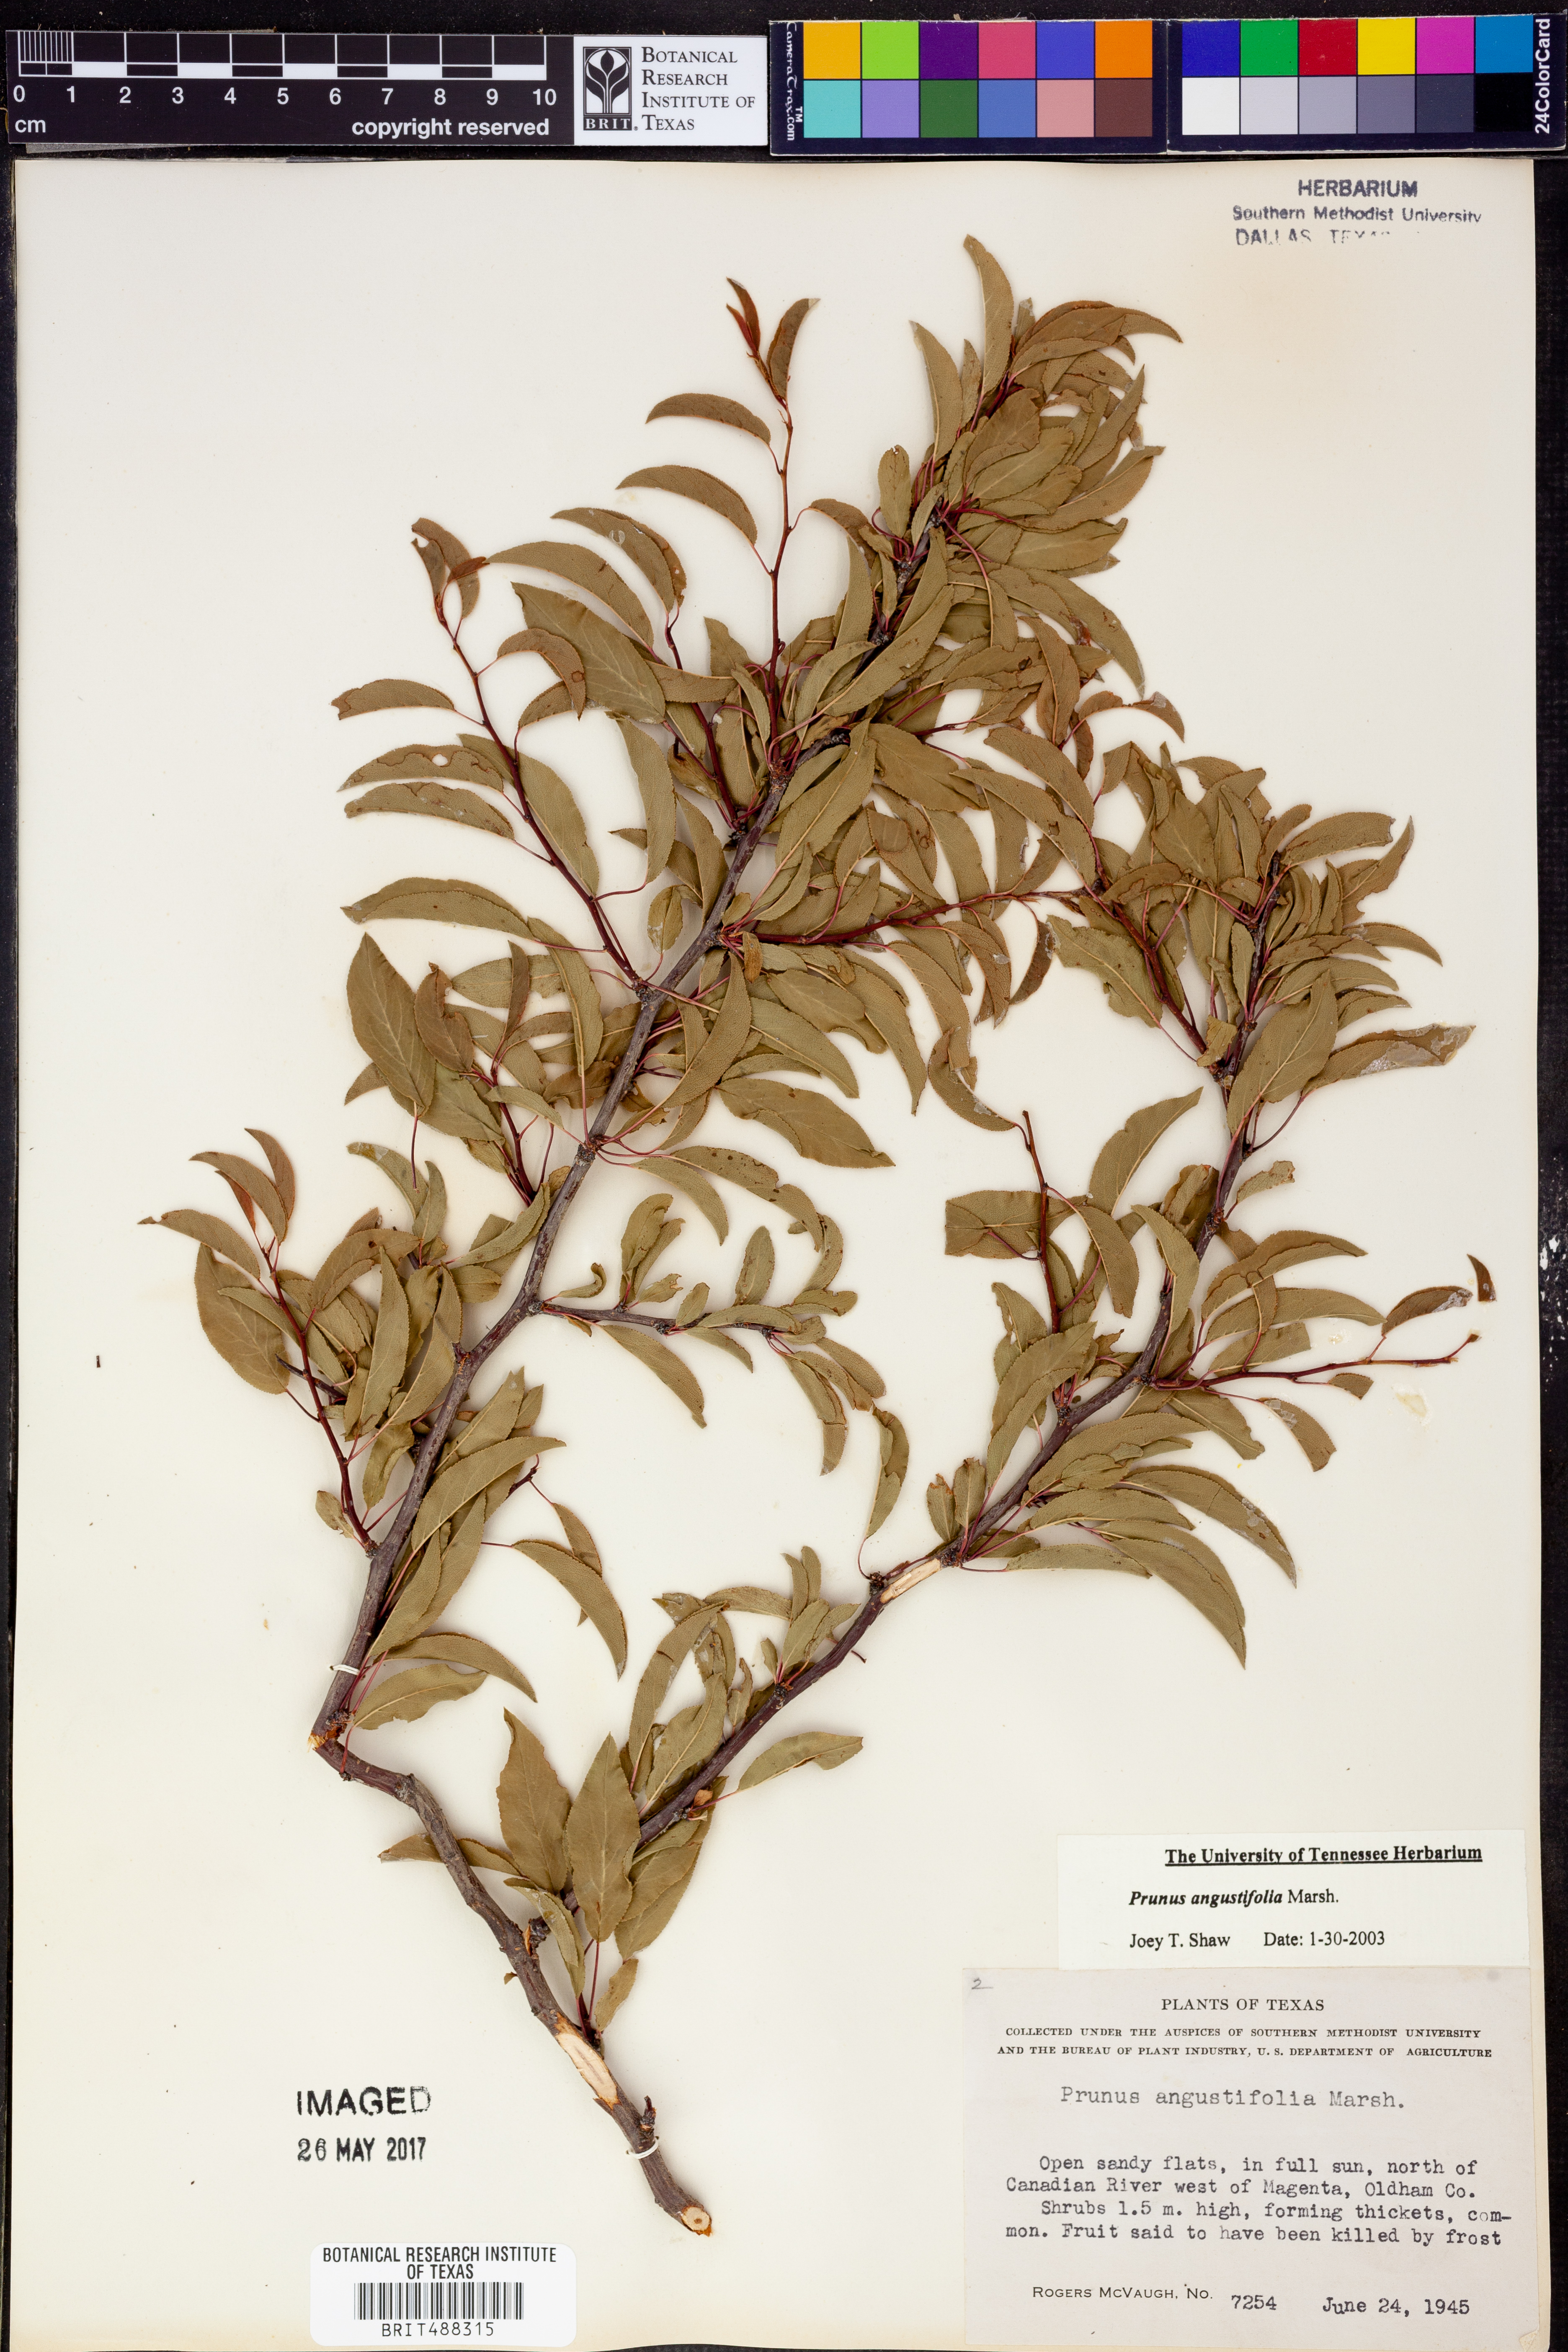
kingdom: Plantae
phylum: Tracheophyta
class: Magnoliopsida
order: Rosales
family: Rosaceae
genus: Prunus
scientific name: Prunus angustifolia
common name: Cherokee plum
